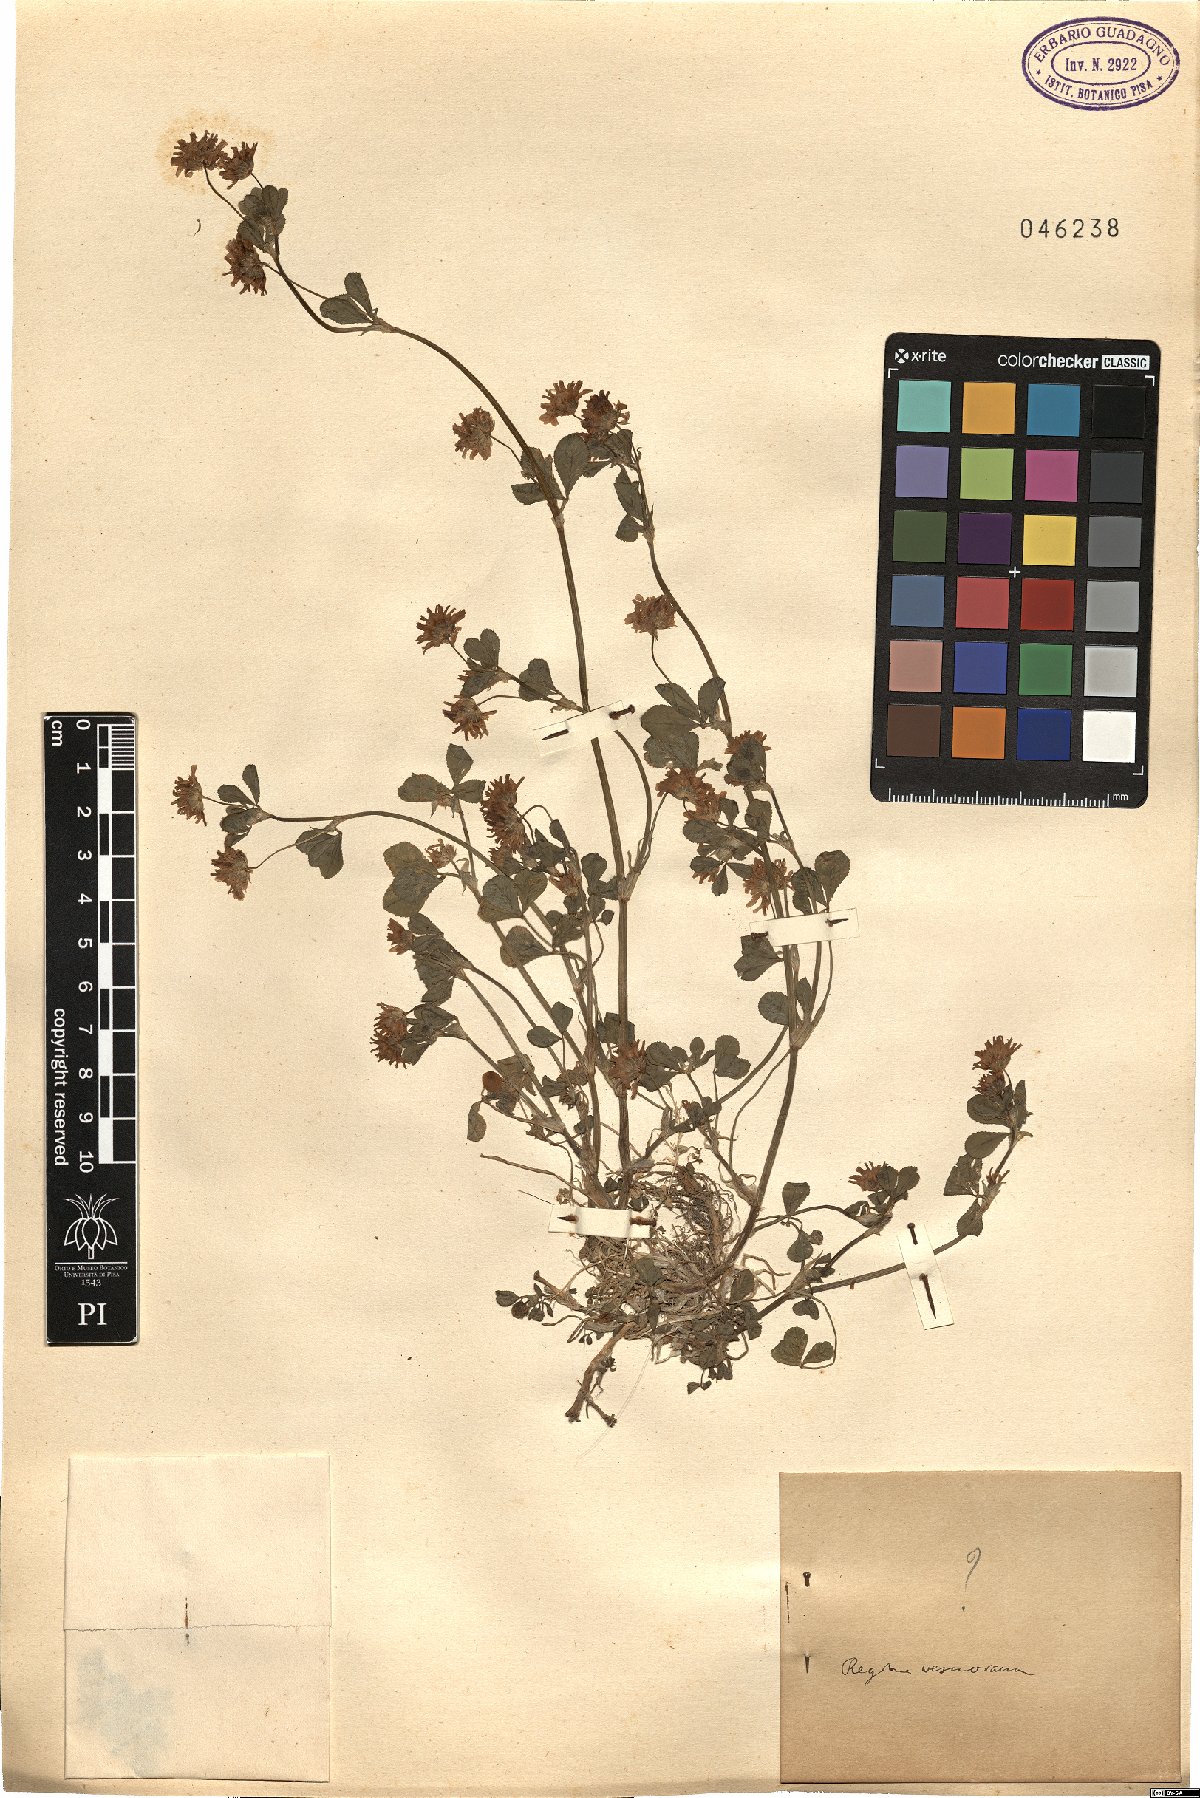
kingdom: Plantae
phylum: Tracheophyta
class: Magnoliopsida
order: Fabales
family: Fabaceae
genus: Trifolium
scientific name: Trifolium
